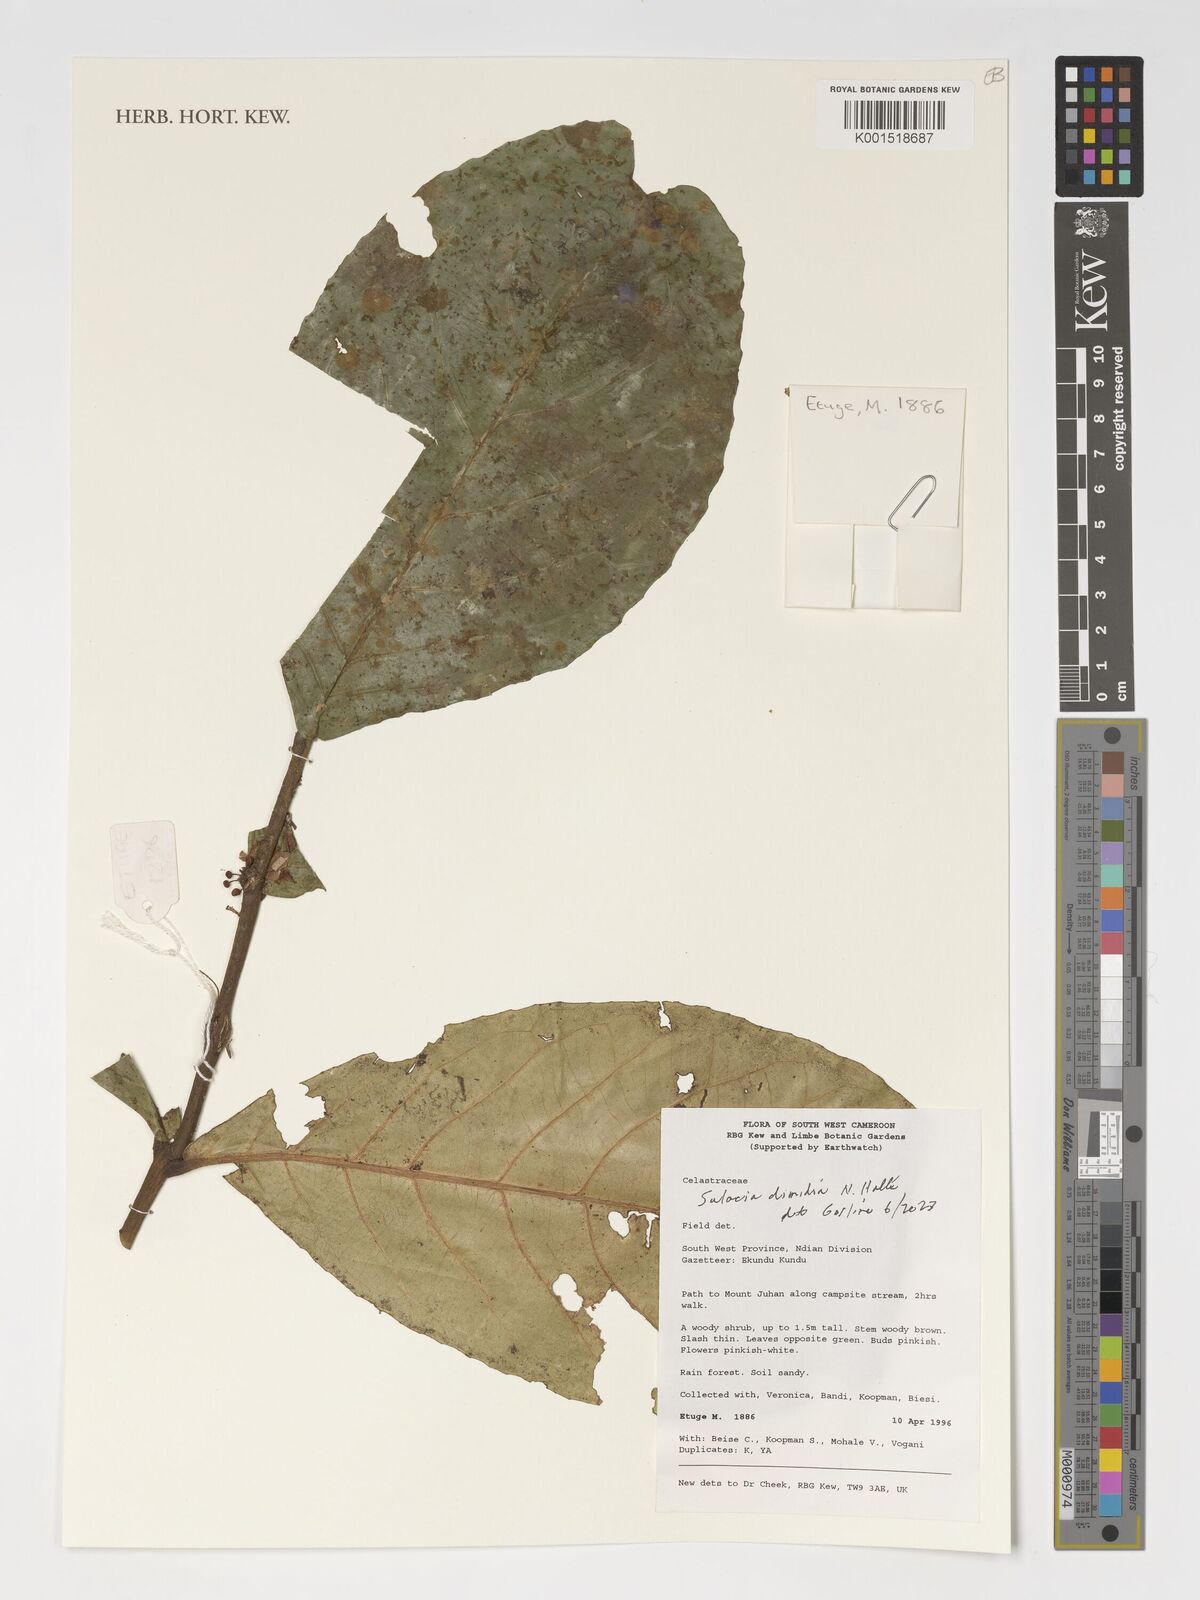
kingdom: Plantae
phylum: Tracheophyta
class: Magnoliopsida
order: Celastrales
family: Celastraceae
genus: Salacia
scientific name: Salacia dimidia
